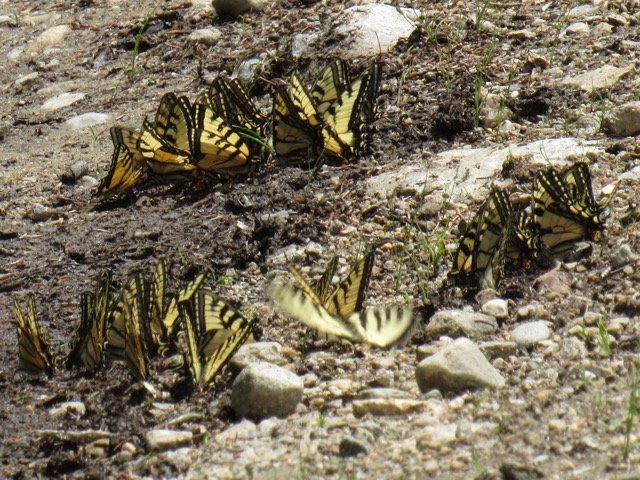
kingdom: Animalia
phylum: Arthropoda
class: Insecta
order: Lepidoptera
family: Papilionidae
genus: Pterourus
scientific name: Pterourus canadensis
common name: Canadian Tiger Swallowtail
